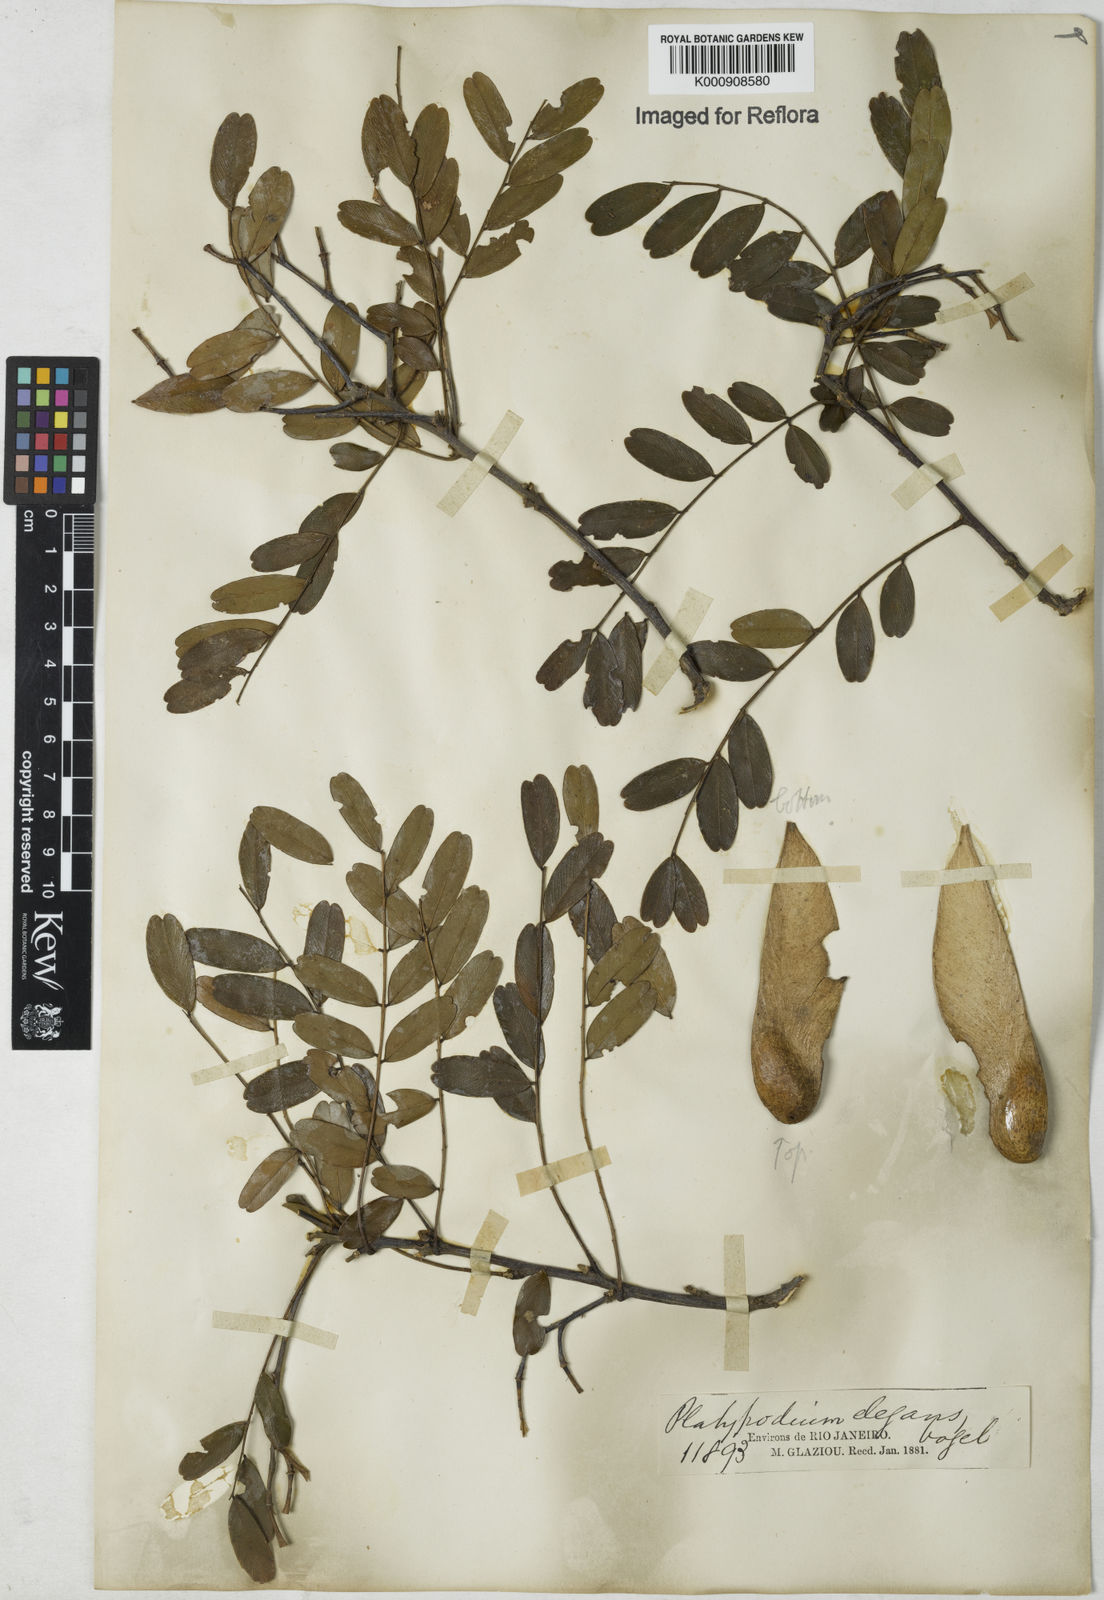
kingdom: Plantae
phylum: Tracheophyta
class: Magnoliopsida
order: Fabales
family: Fabaceae
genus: Platypodium
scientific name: Platypodium
